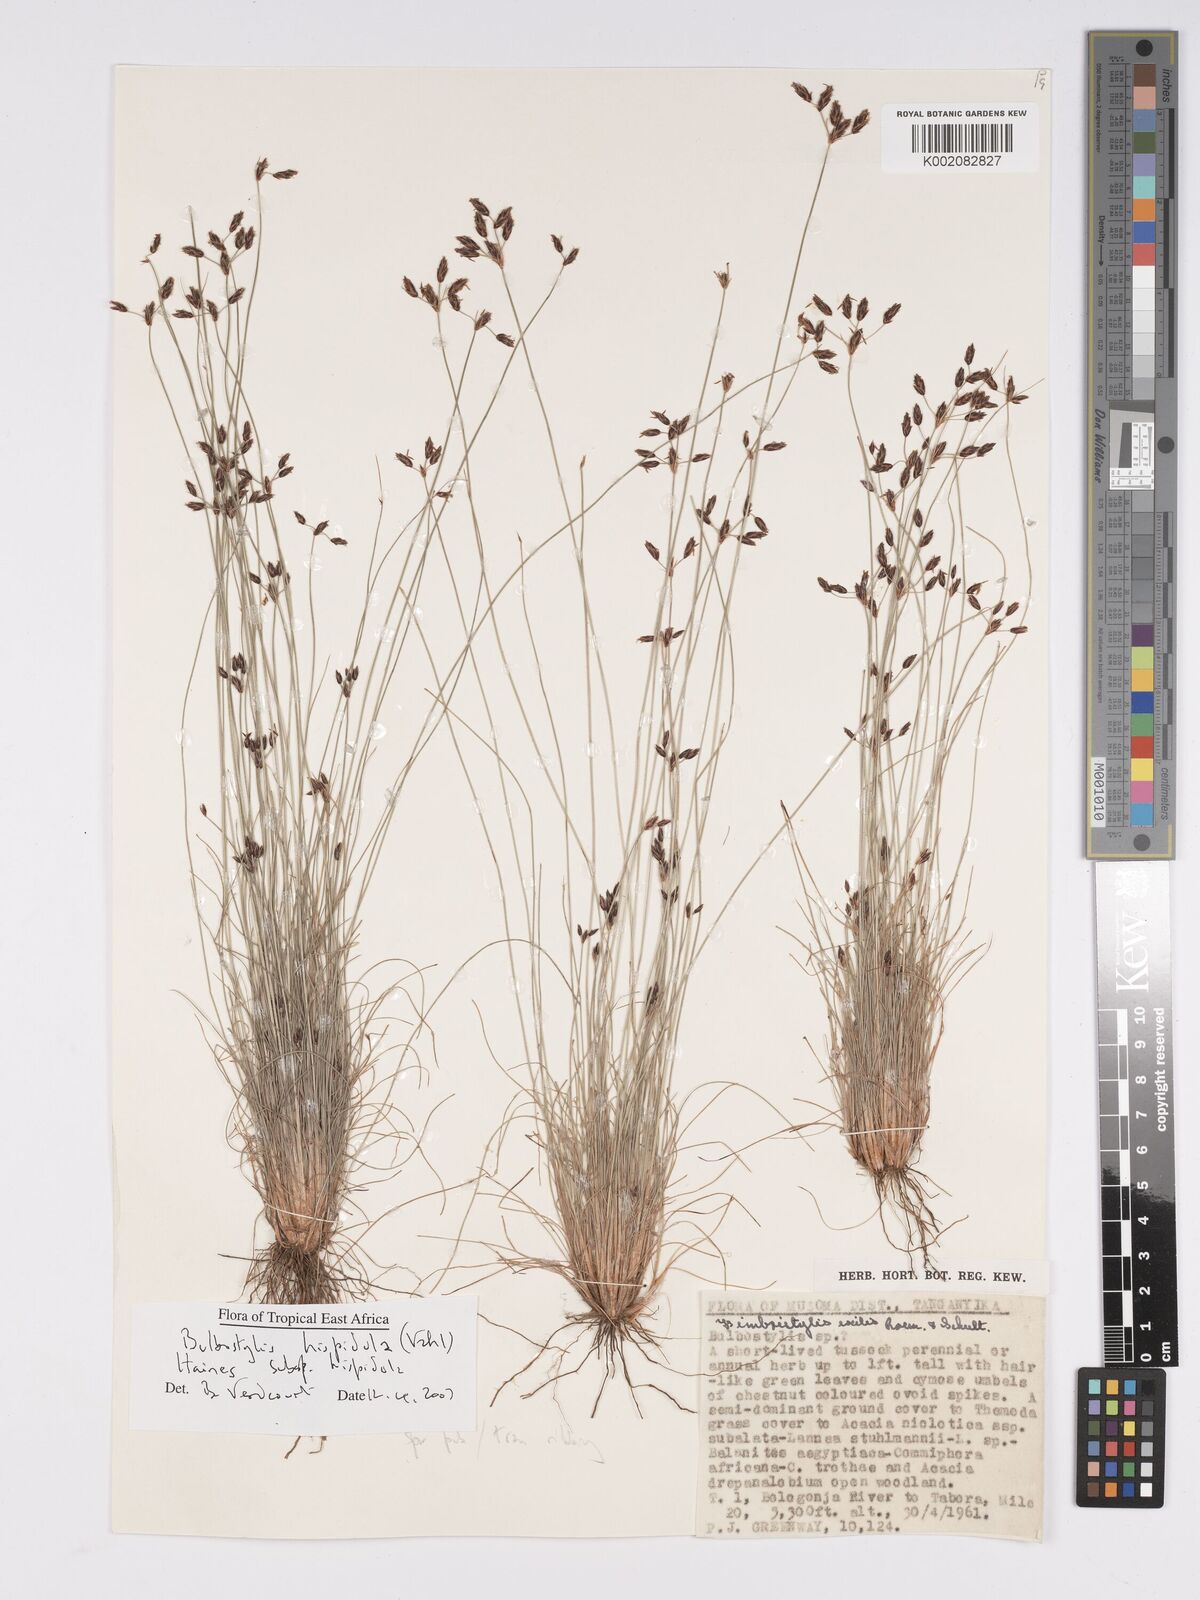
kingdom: Plantae
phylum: Tracheophyta
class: Liliopsida
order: Poales
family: Cyperaceae
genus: Bulbostylis
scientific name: Bulbostylis hispidula
